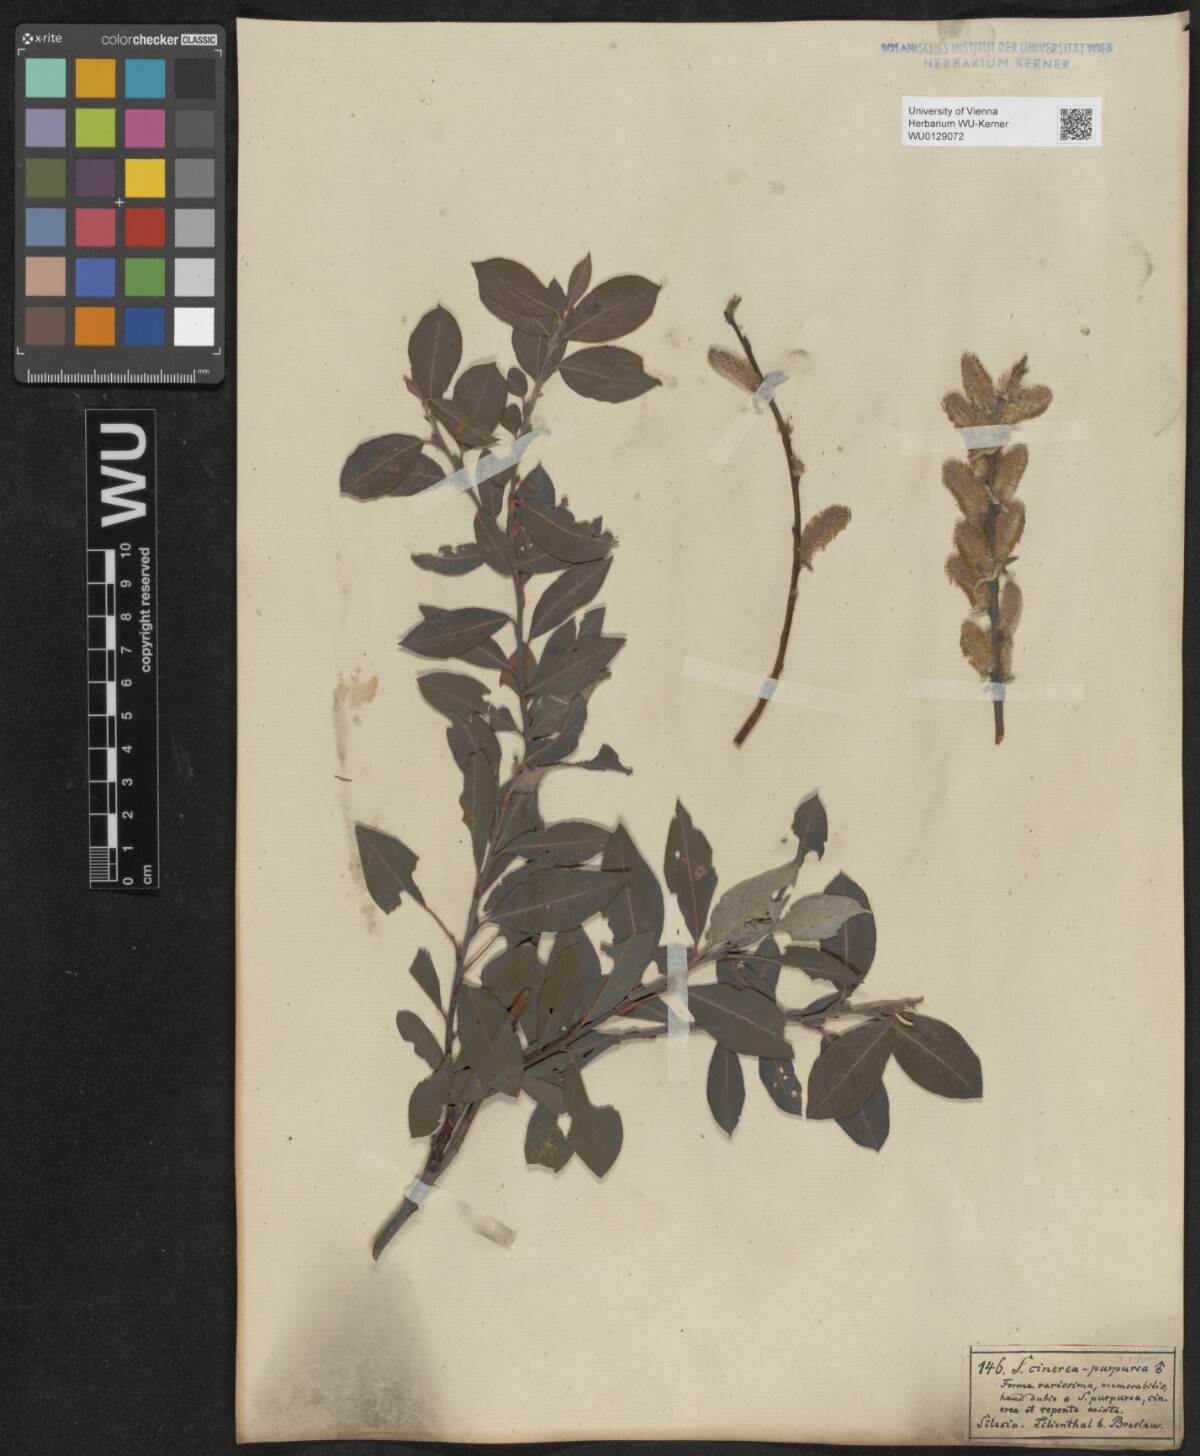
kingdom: Plantae
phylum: Tracheophyta
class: Magnoliopsida
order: Malpighiales
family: Salicaceae
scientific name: Salicaceae
